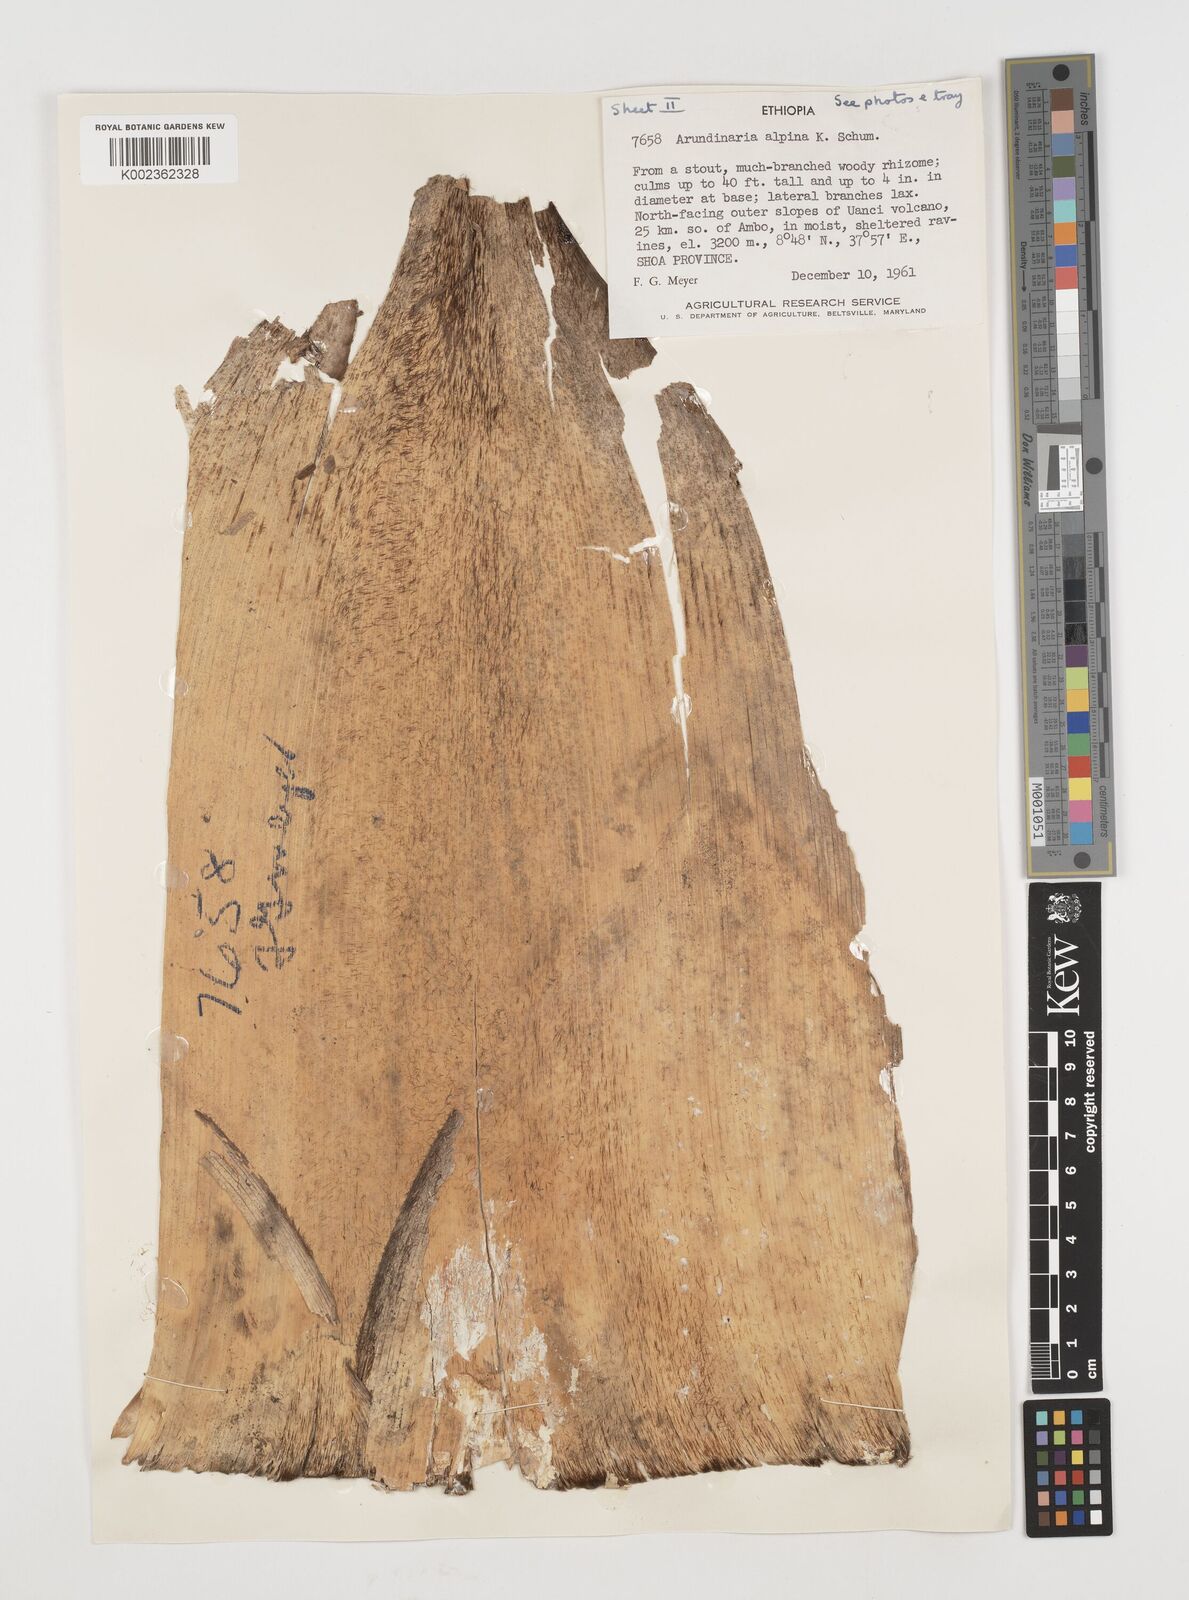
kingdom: Plantae
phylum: Tracheophyta
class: Liliopsida
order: Poales
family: Poaceae
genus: Oldeania
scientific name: Oldeania alpina
